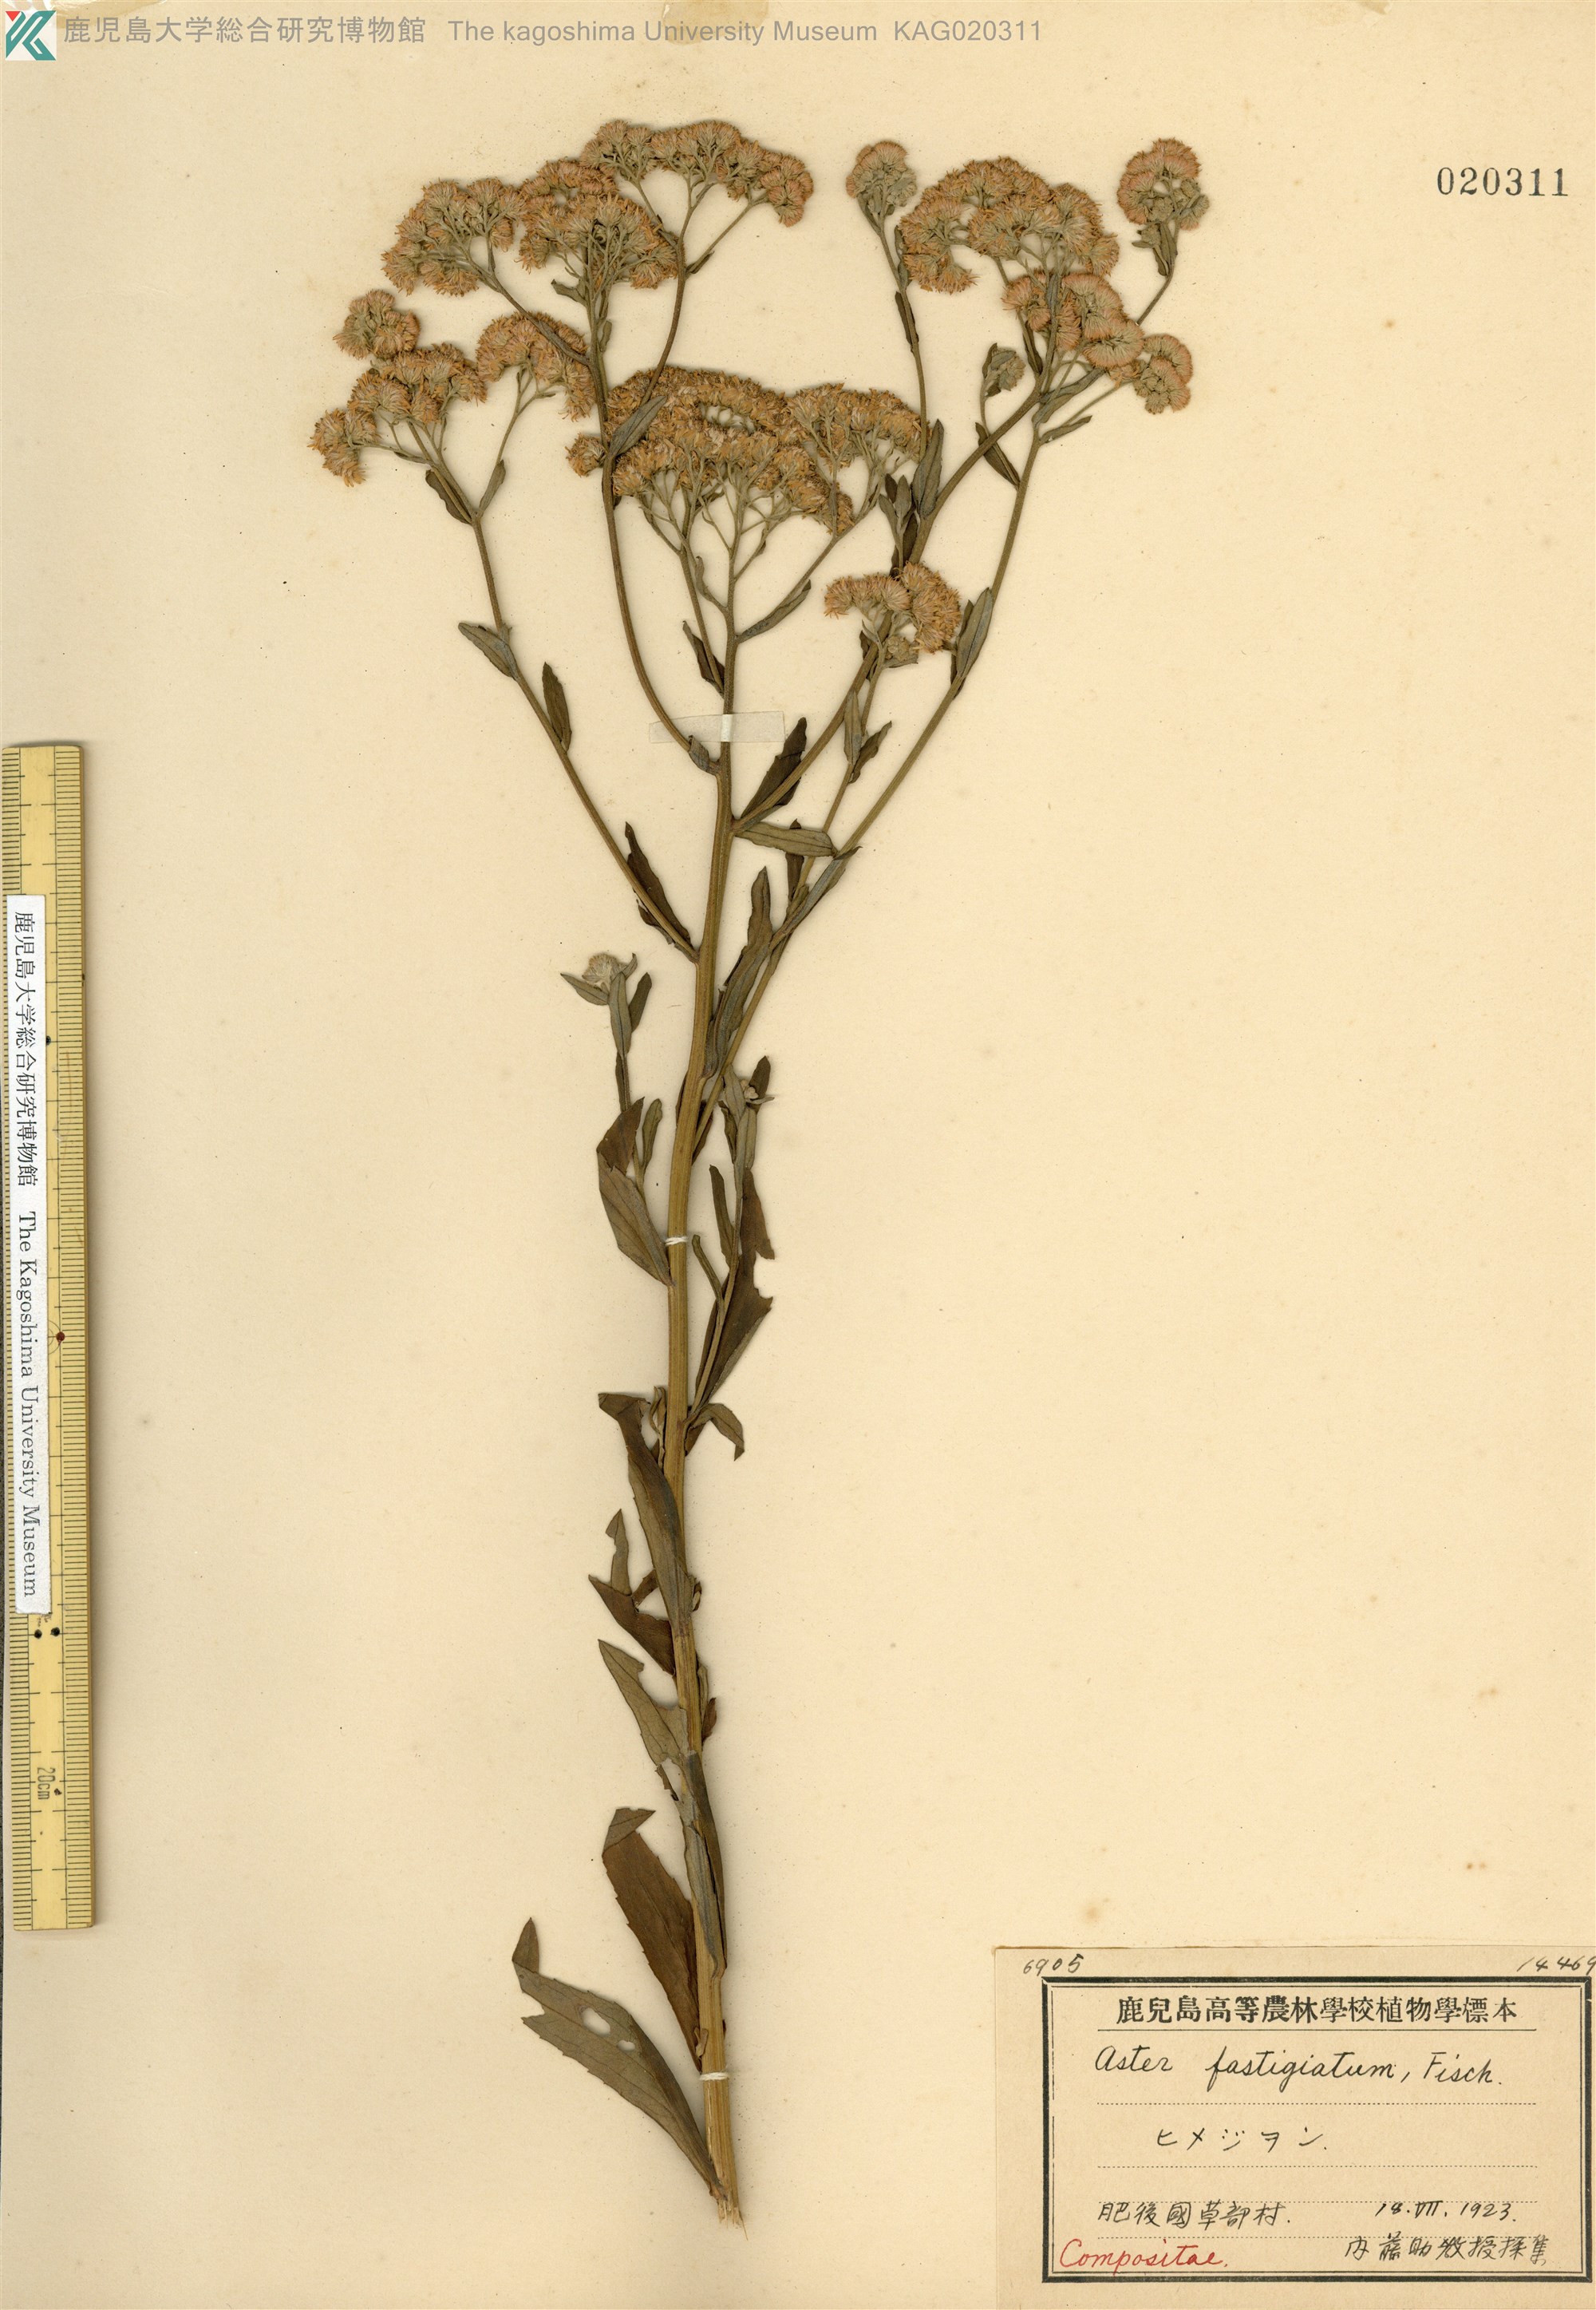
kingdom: Plantae
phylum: Tracheophyta
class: Magnoliopsida
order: Asterales
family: Asteraceae
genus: Turczaninovia
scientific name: Turczaninovia fastigiata
